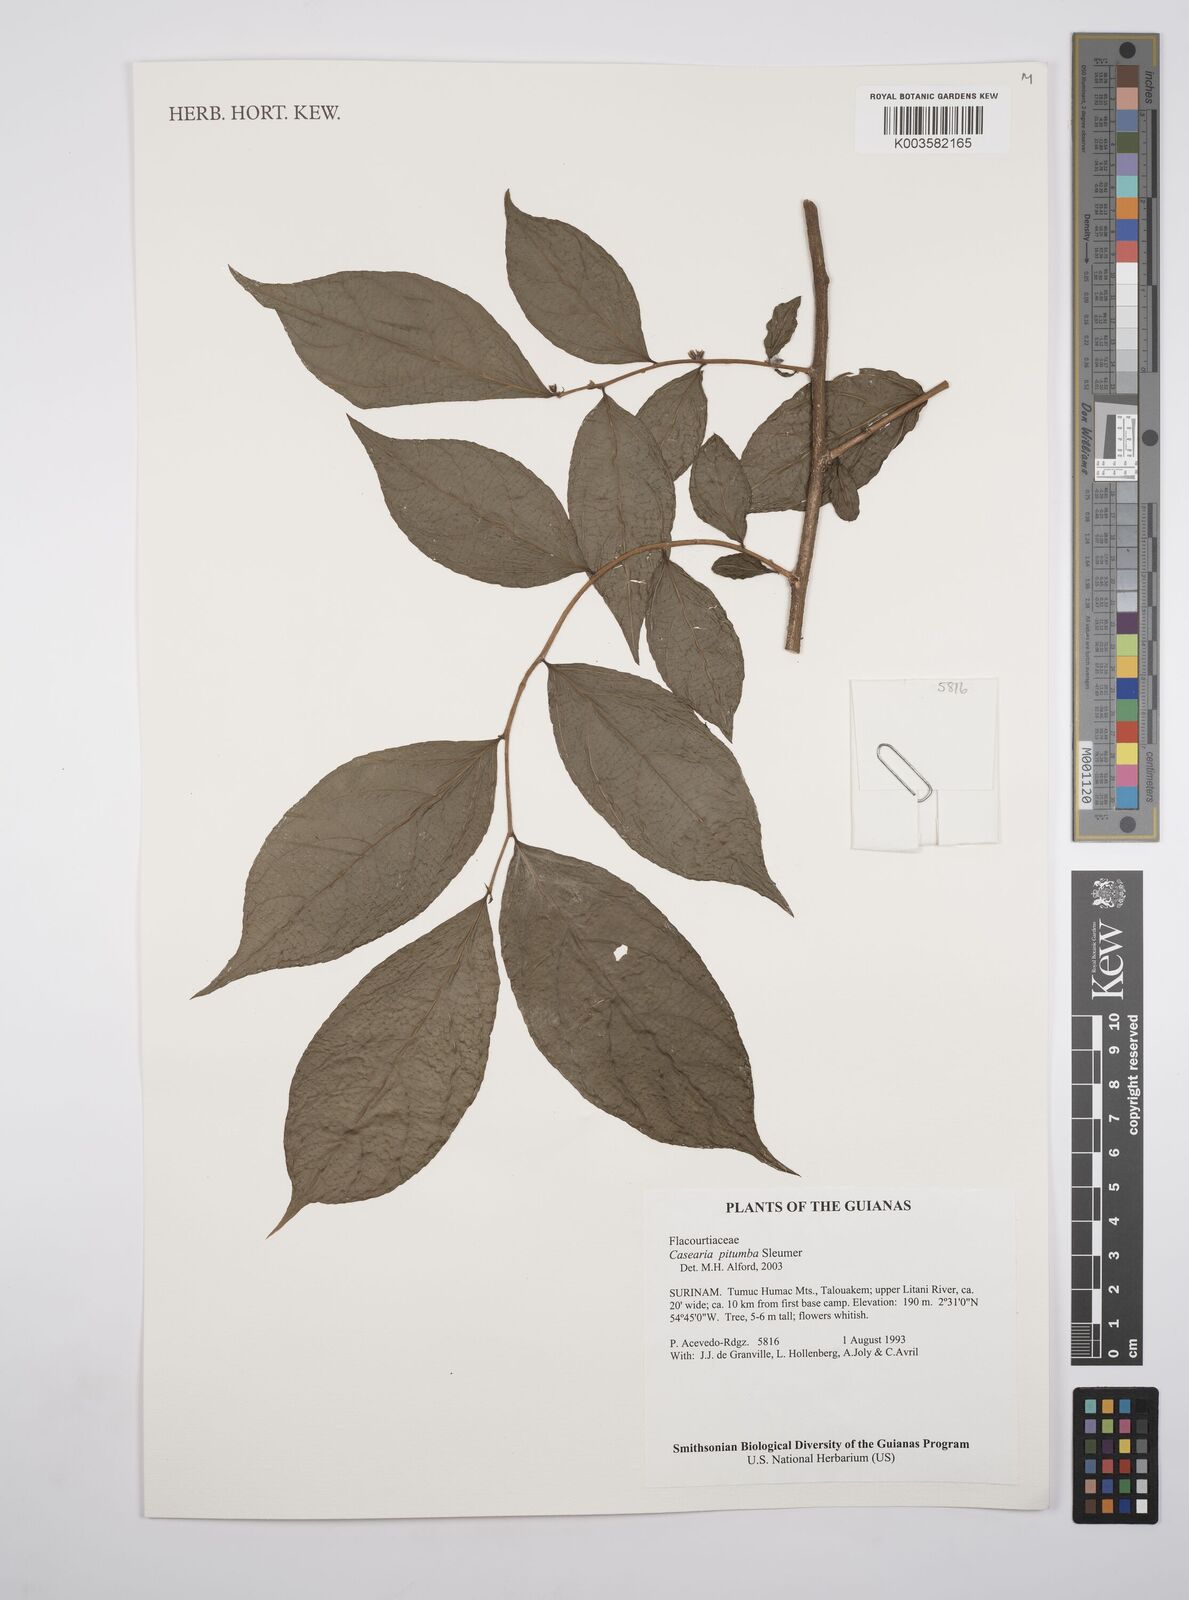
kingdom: Plantae
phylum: Tracheophyta
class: Magnoliopsida
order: Malpighiales
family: Salicaceae
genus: Casearia
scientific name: Casearia pitumba
